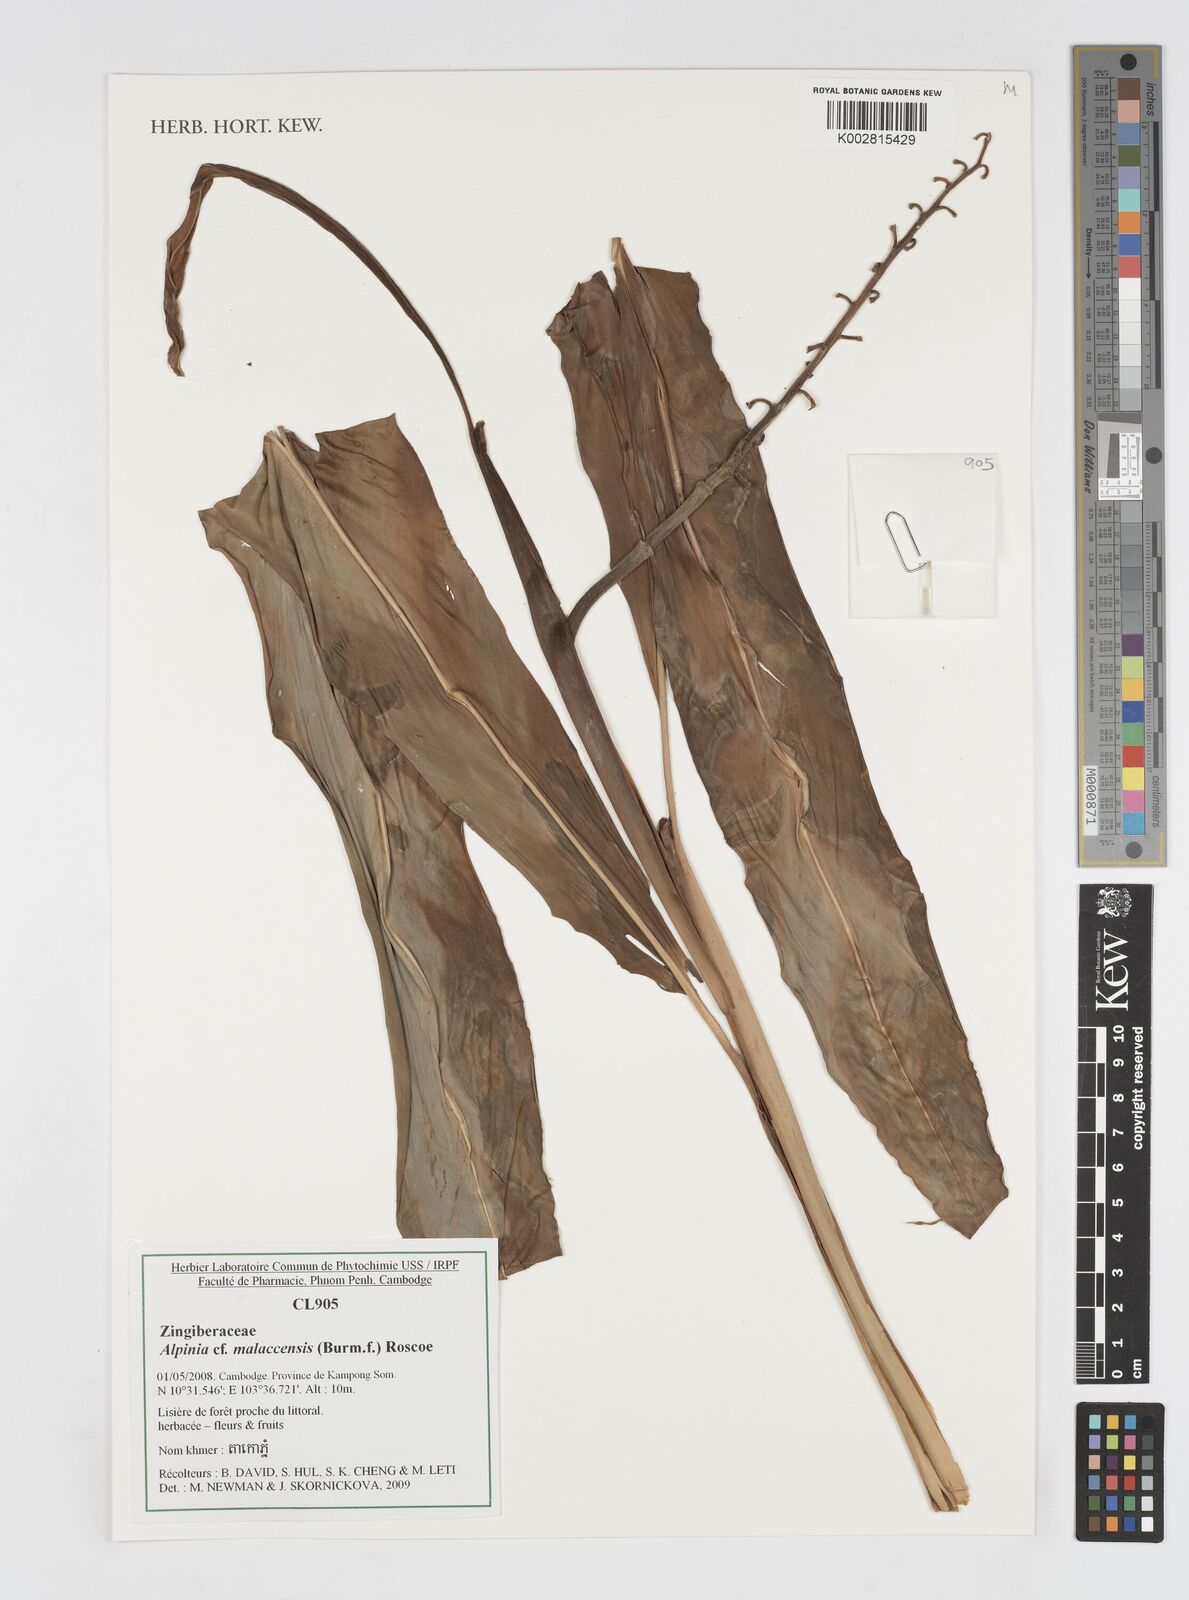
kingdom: Plantae
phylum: Tracheophyta
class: Liliopsida
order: Zingiberales
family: Zingiberaceae
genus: Alpinia
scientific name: Alpinia malaccensis
